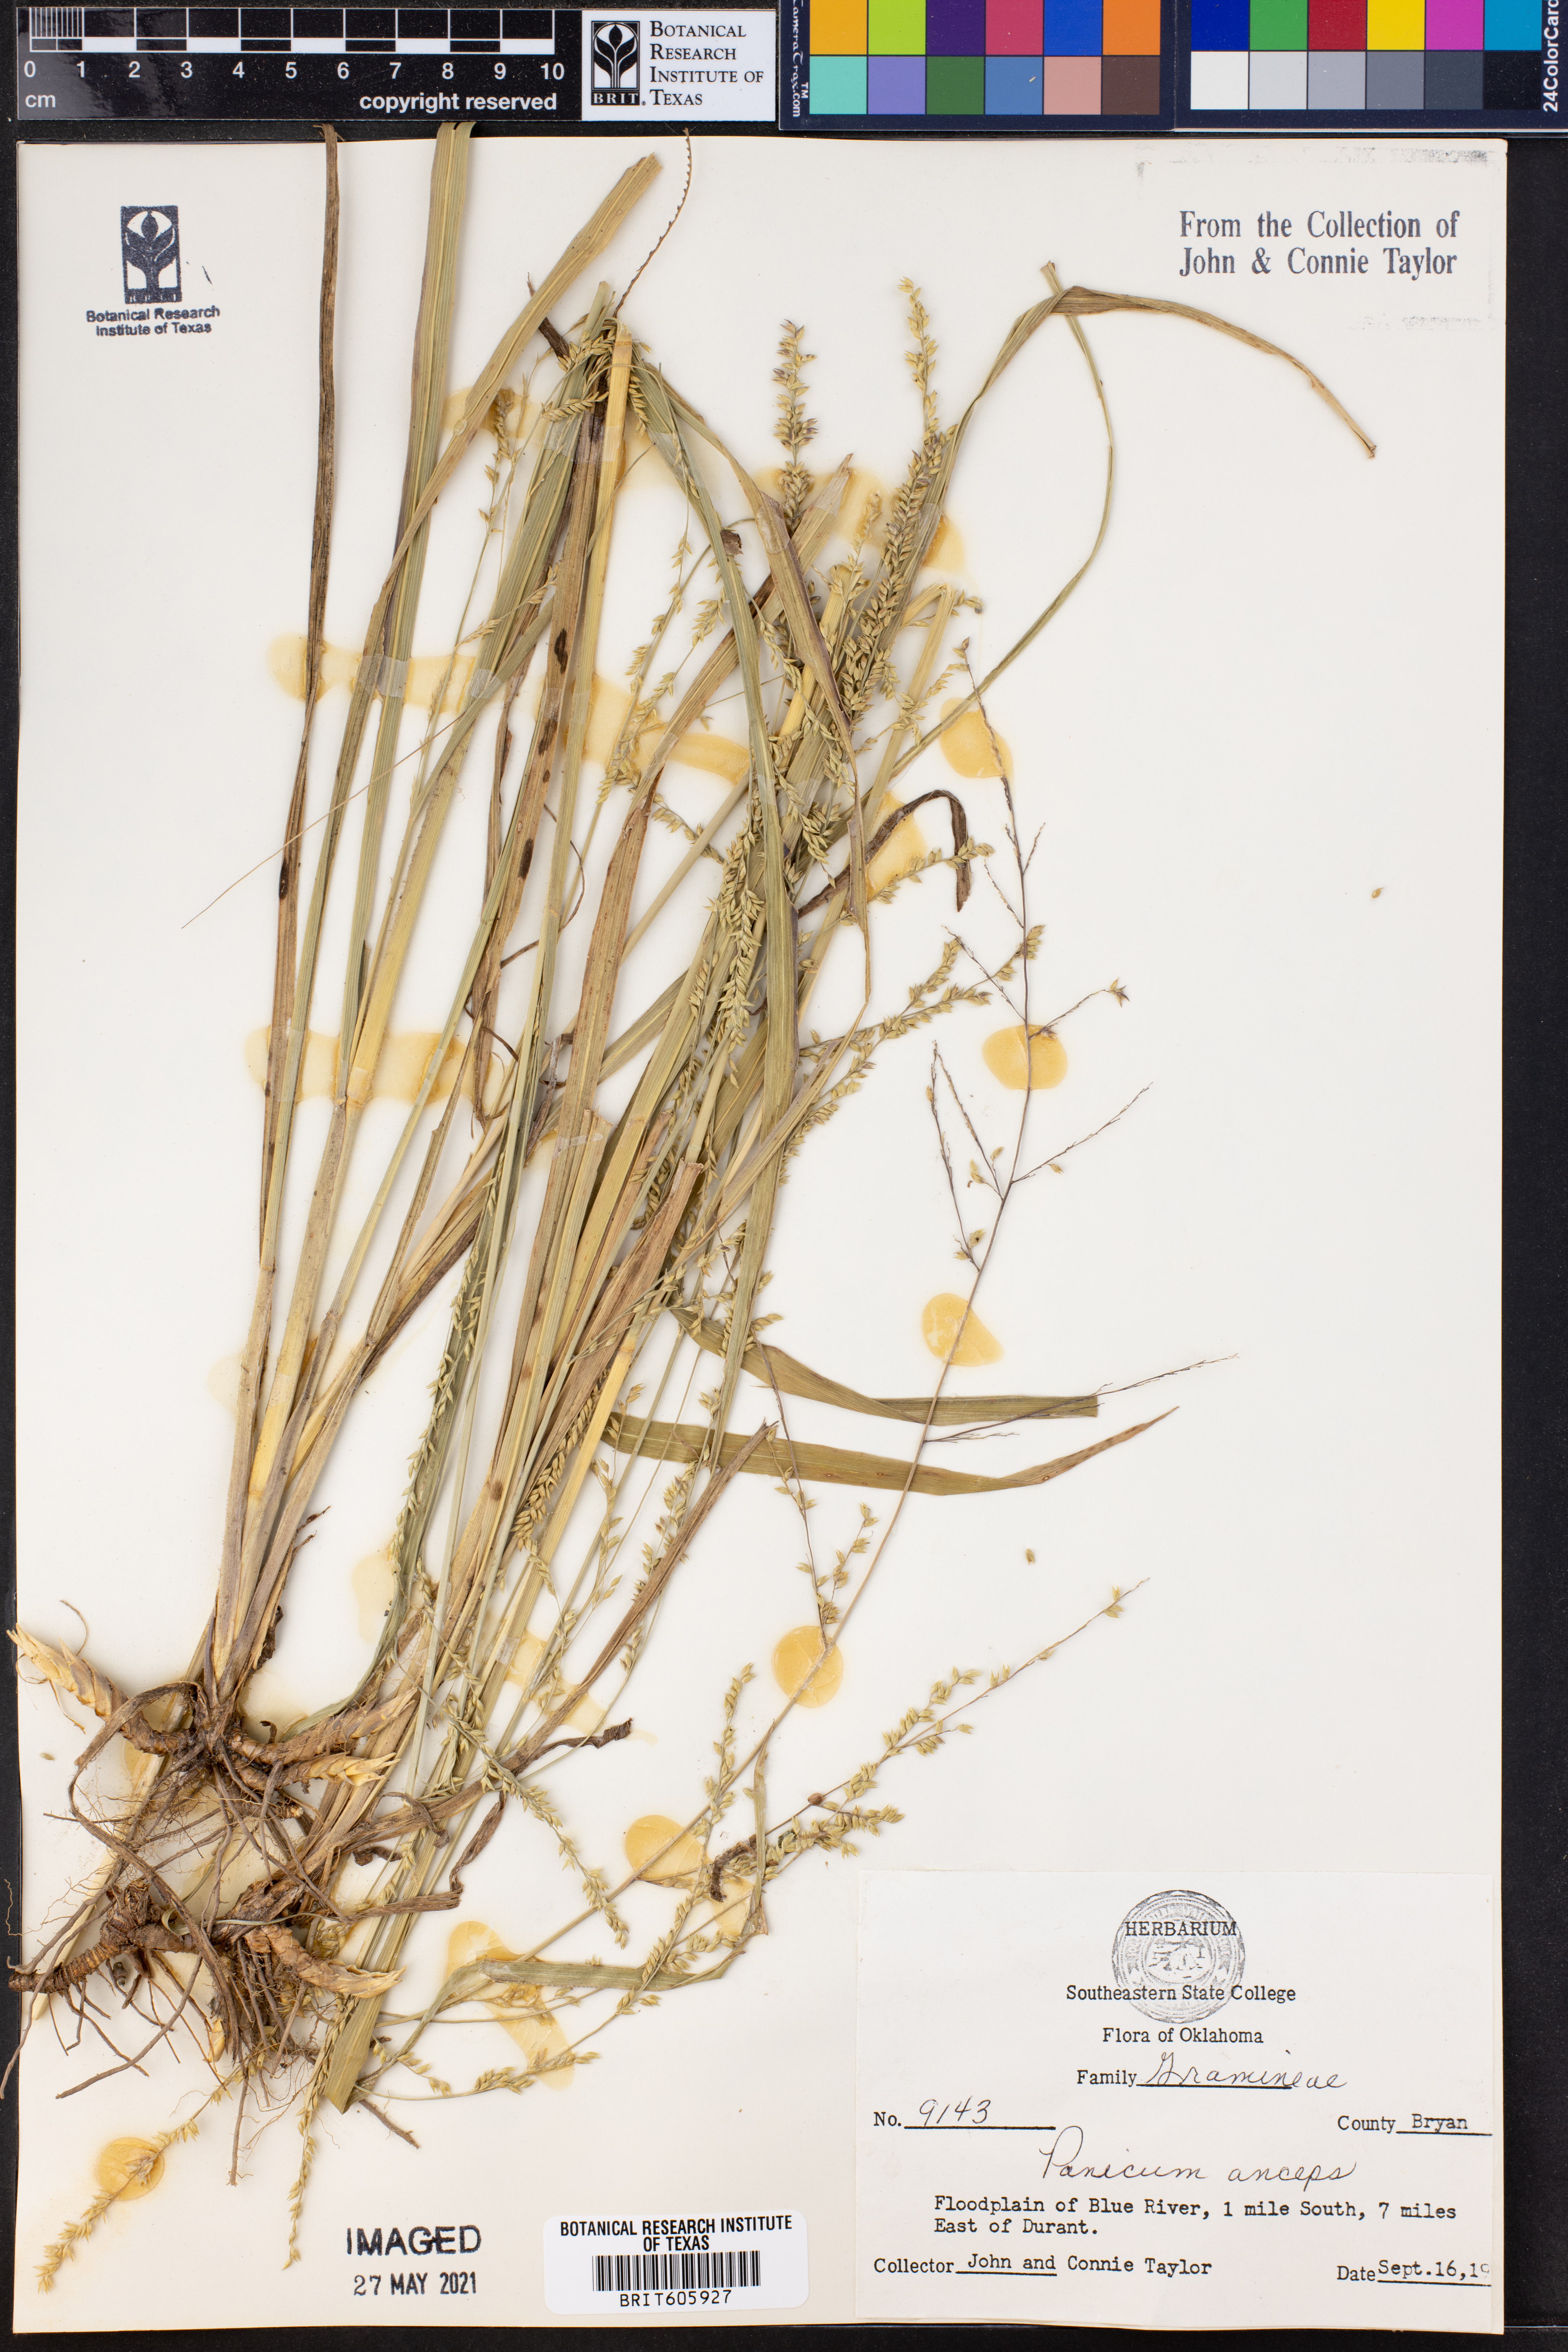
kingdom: Plantae
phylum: Tracheophyta
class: Liliopsida
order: Poales
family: Poaceae
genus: Coleataenia
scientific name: Coleataenia anceps
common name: Beaked panic grass
